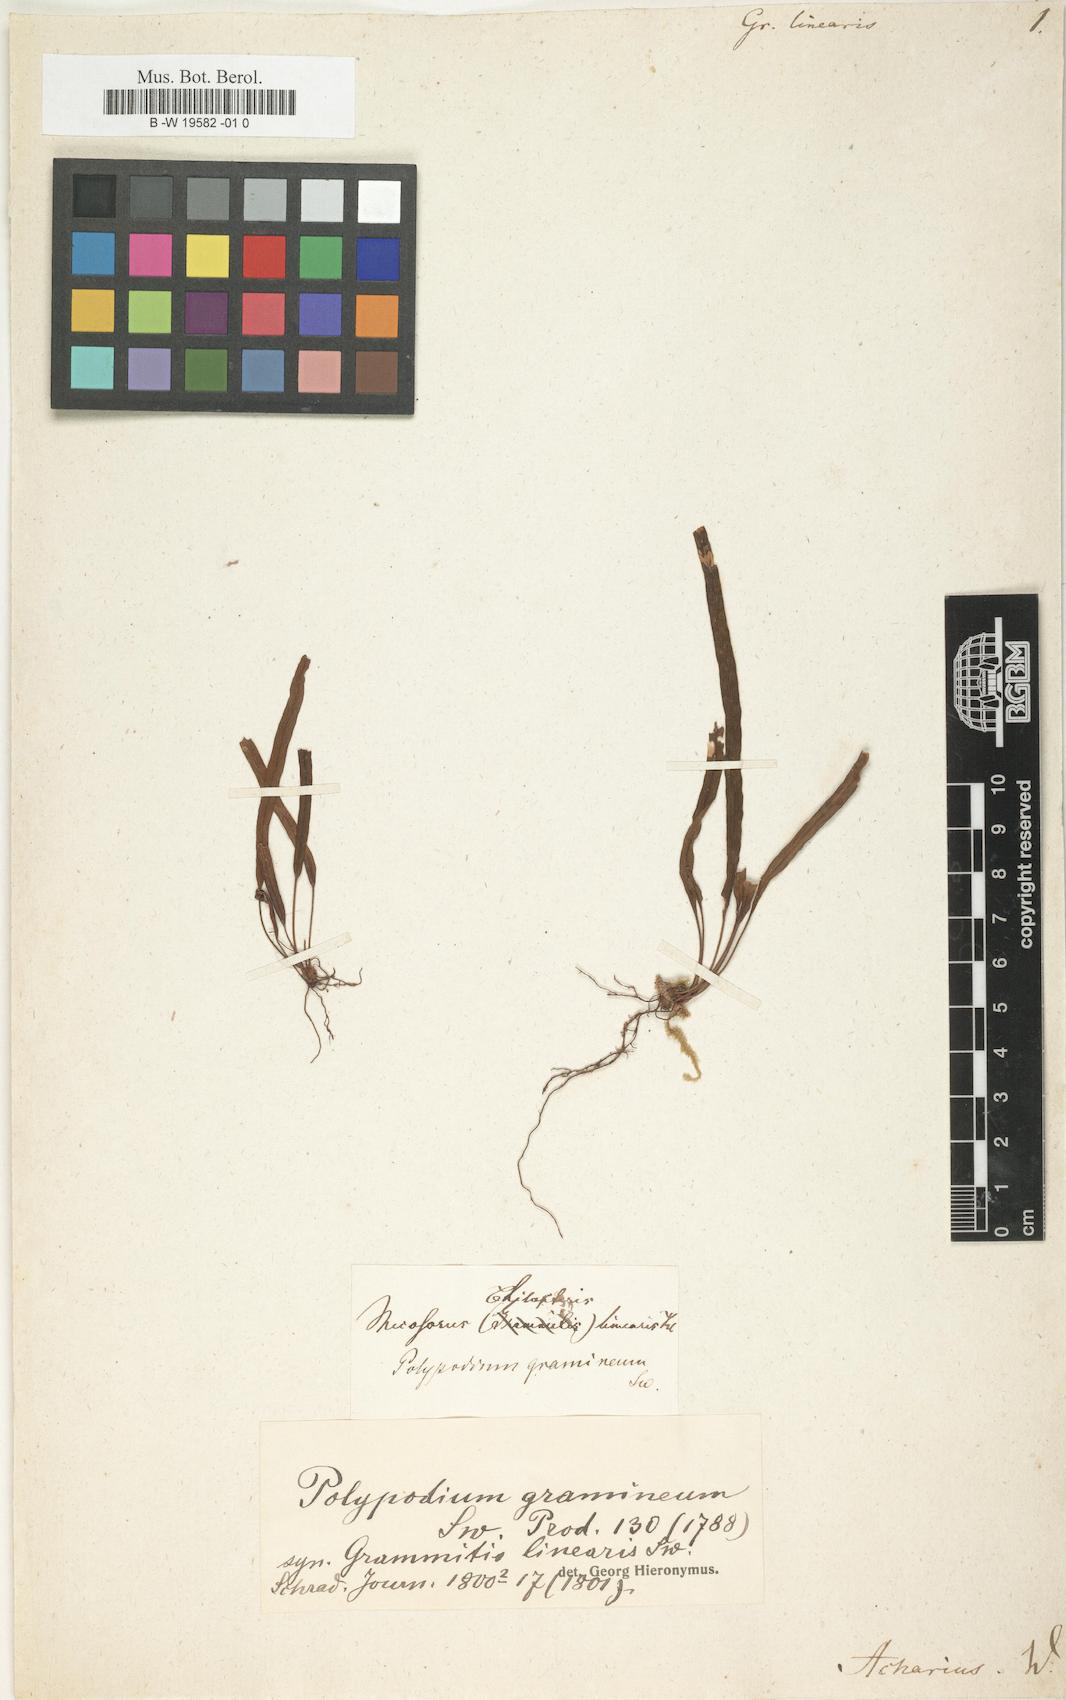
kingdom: Plantae
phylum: Tracheophyta
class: Polypodiopsida
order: Polypodiales
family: Polypodiaceae
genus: Lomaphlebia
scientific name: Lomaphlebia linearis
